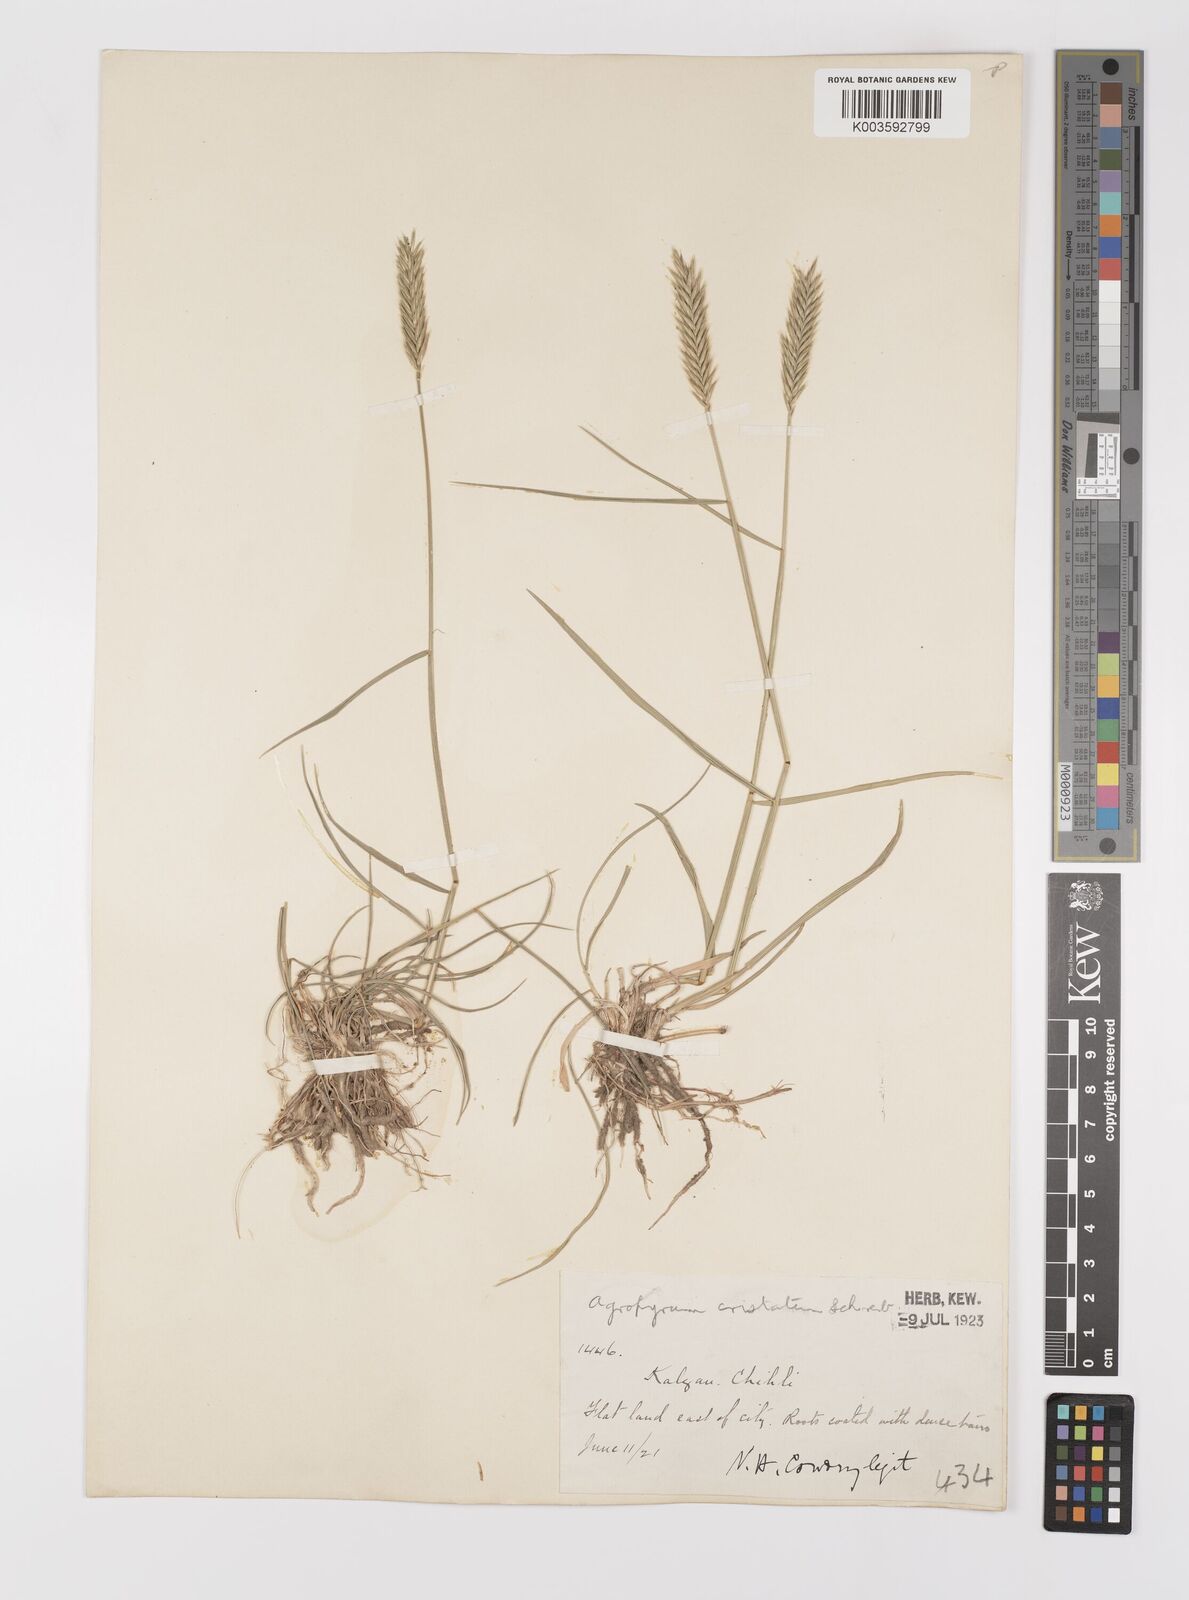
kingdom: Plantae
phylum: Tracheophyta
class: Liliopsida
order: Poales
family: Poaceae
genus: Agropyron
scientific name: Agropyron cristatum
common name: Crested wheatgrass
